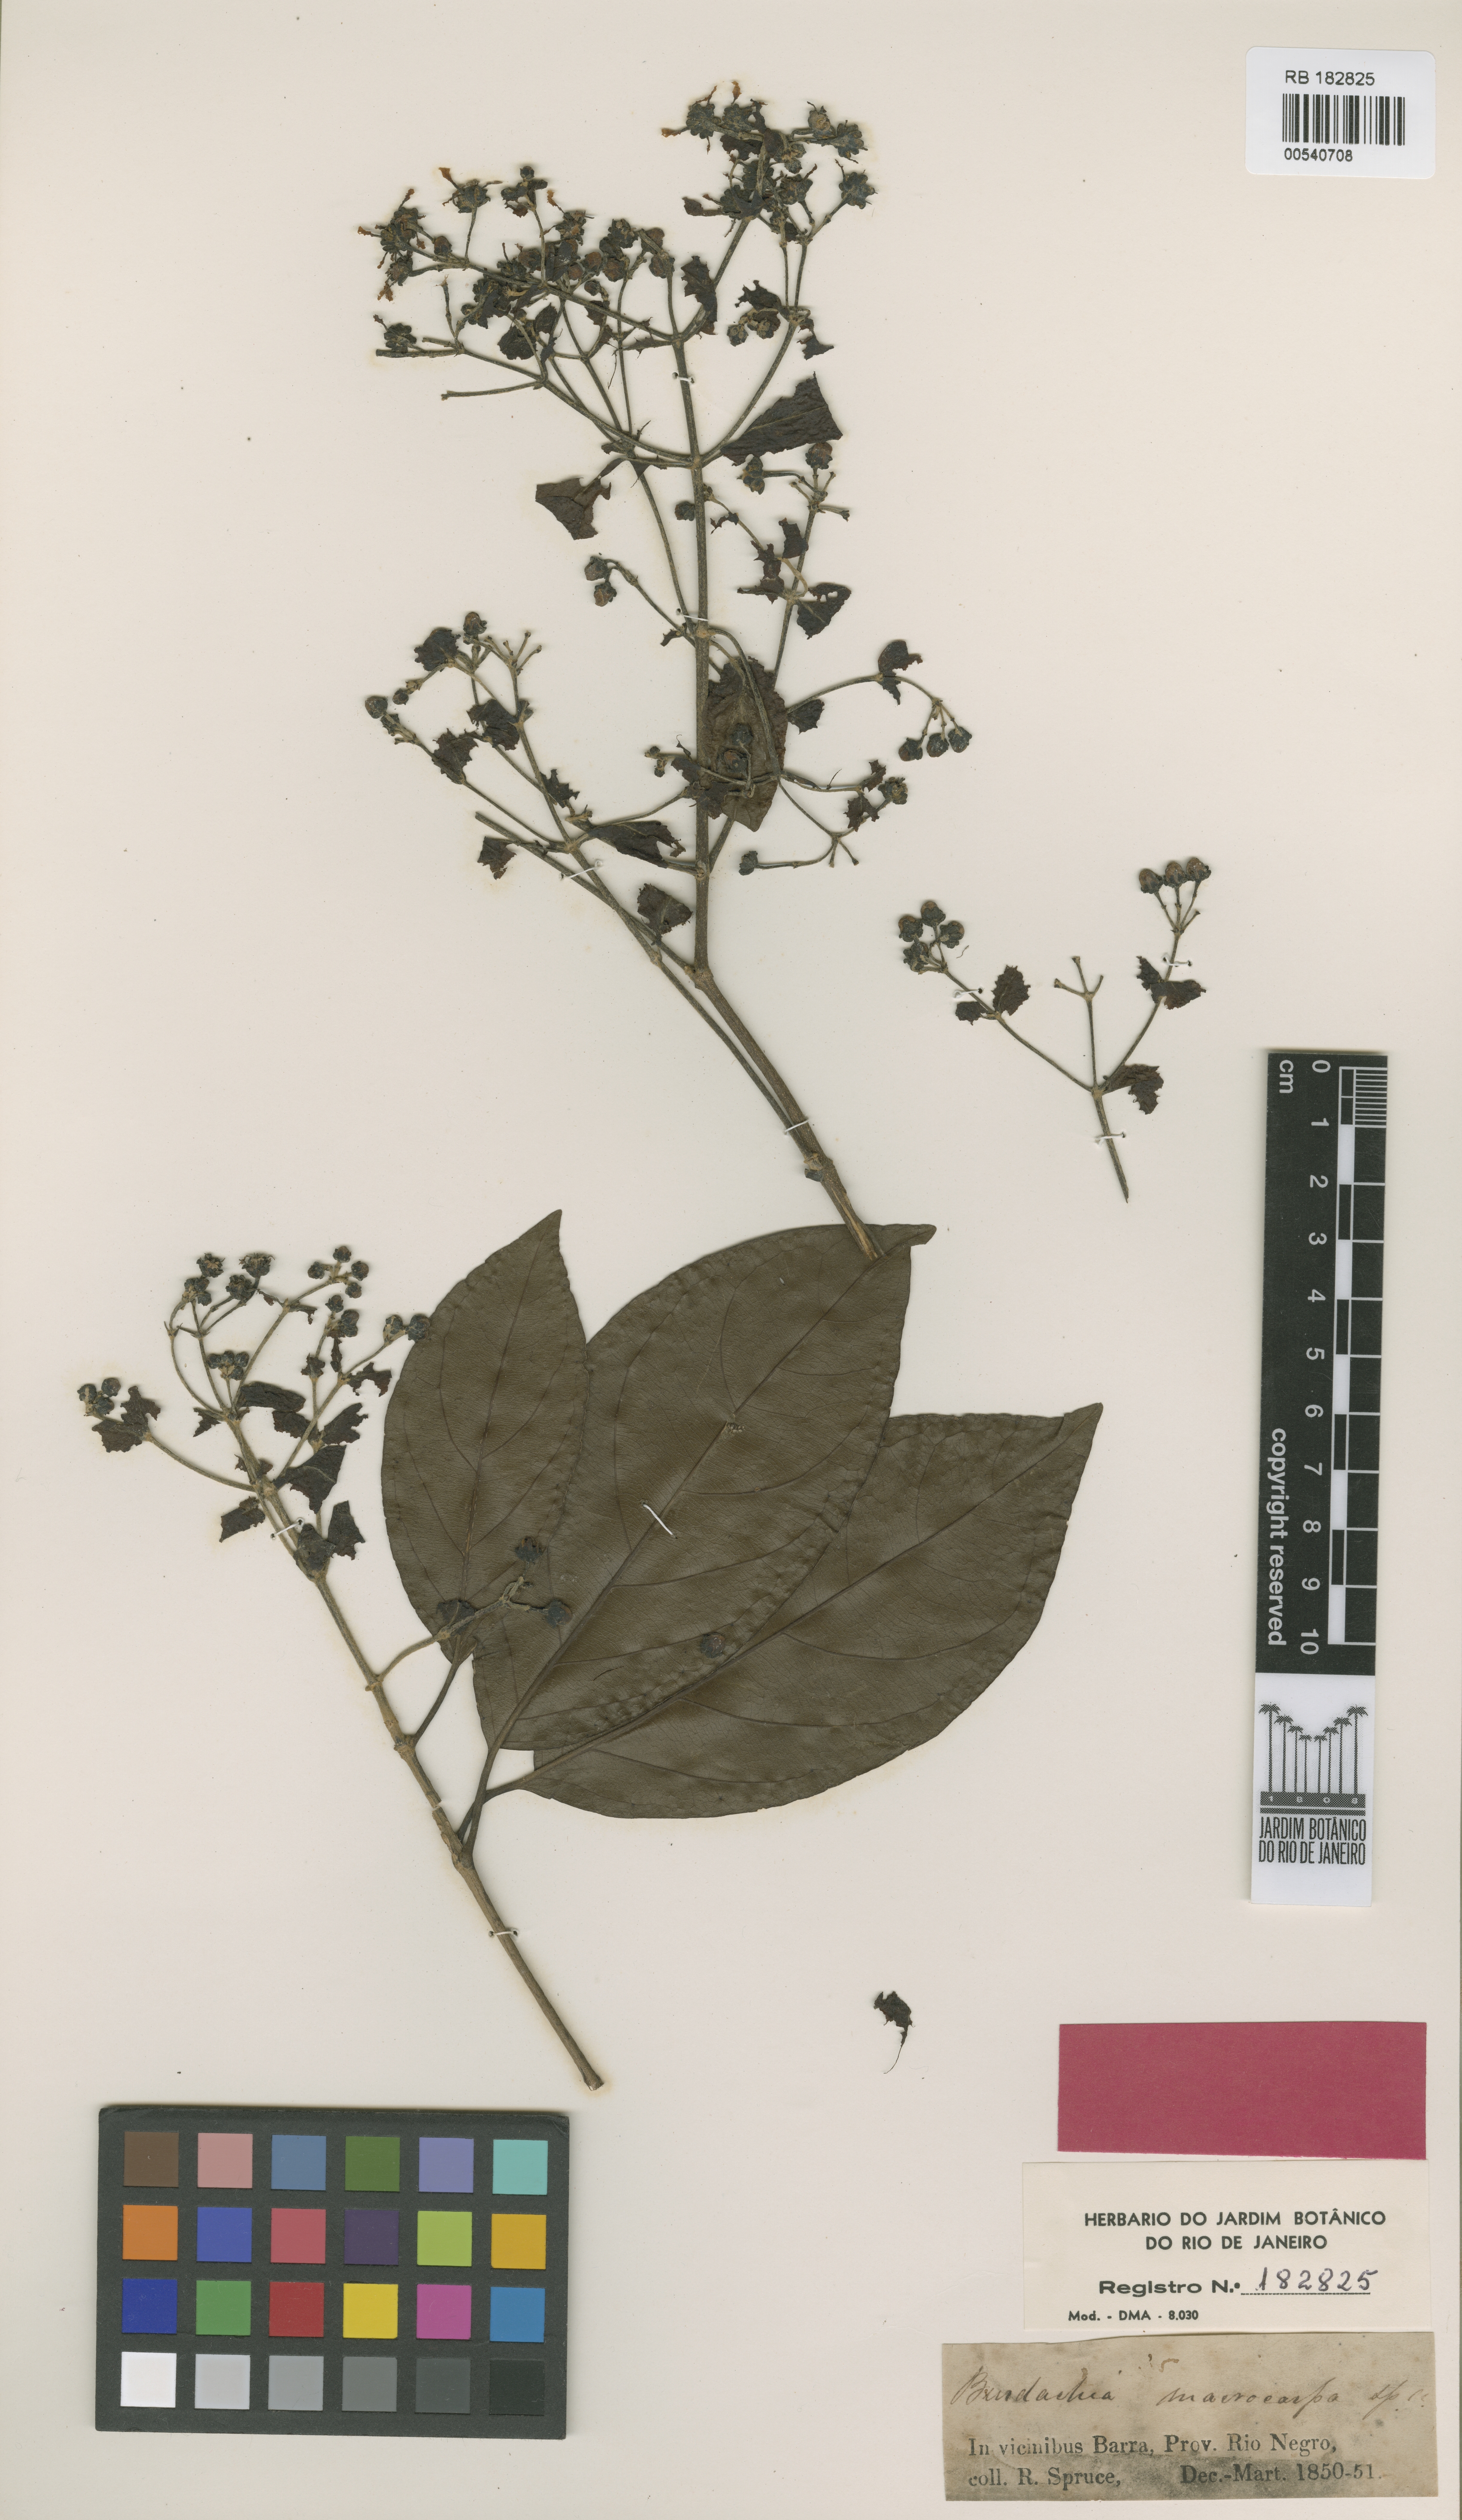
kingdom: Plantae
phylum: Tracheophyta
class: Magnoliopsida
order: Malpighiales
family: Malpighiaceae
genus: Glandonia
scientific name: Glandonia macrocarpa
